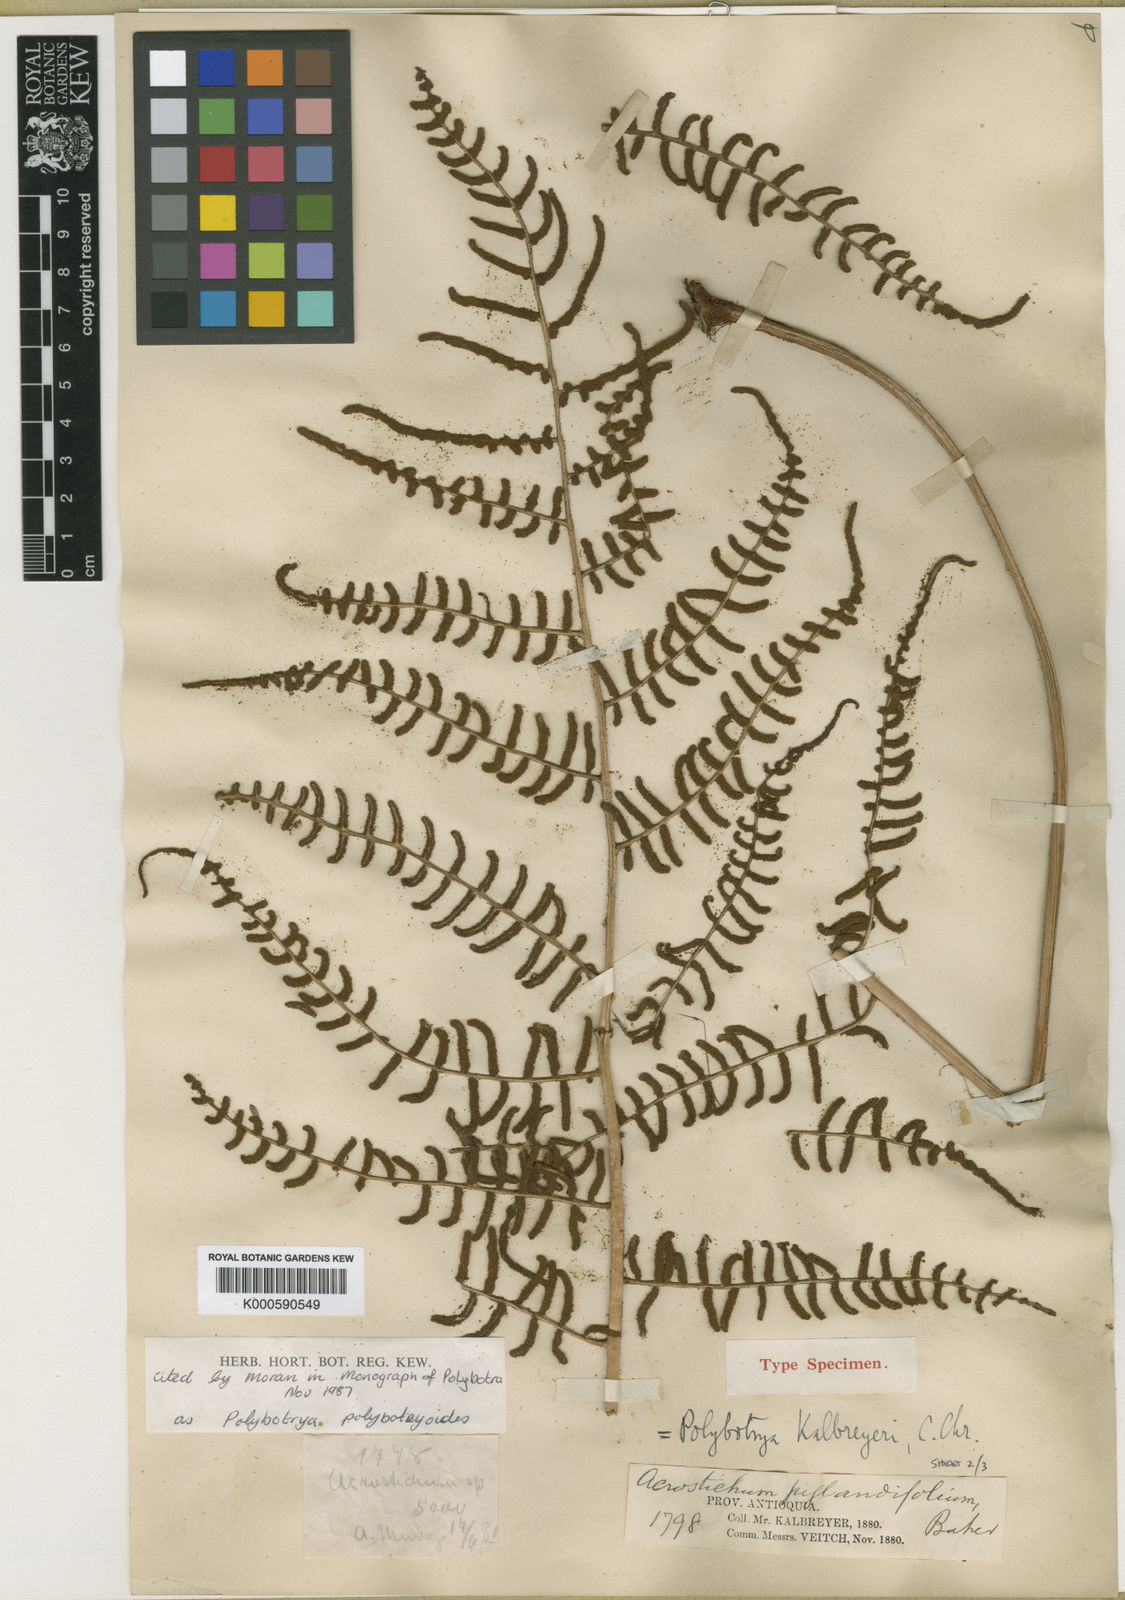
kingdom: Plantae
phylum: Tracheophyta
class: Polypodiopsida
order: Polypodiales
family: Dryopteridaceae
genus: Polybotrya
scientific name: Polybotrya polybotryoides
